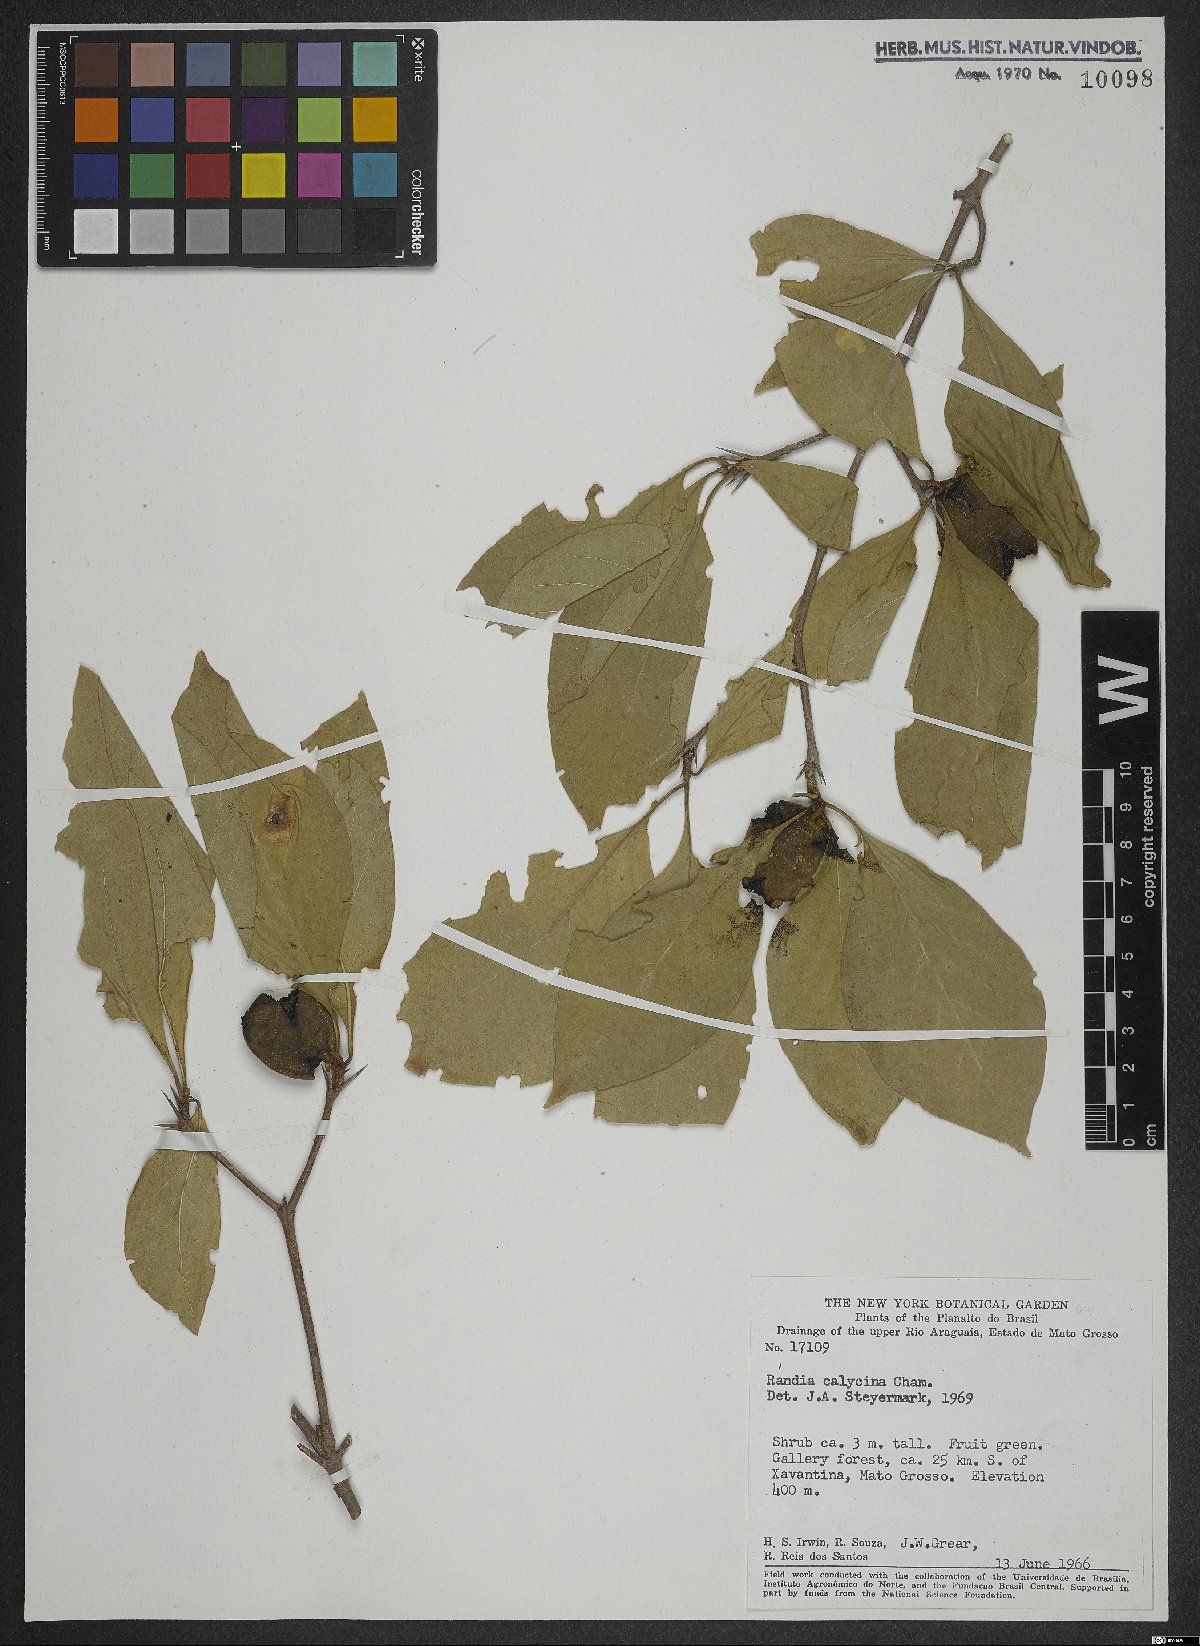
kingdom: Plantae
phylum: Tracheophyta
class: Magnoliopsida
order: Gentianales
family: Rubiaceae
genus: Randia
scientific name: Randia calycina
